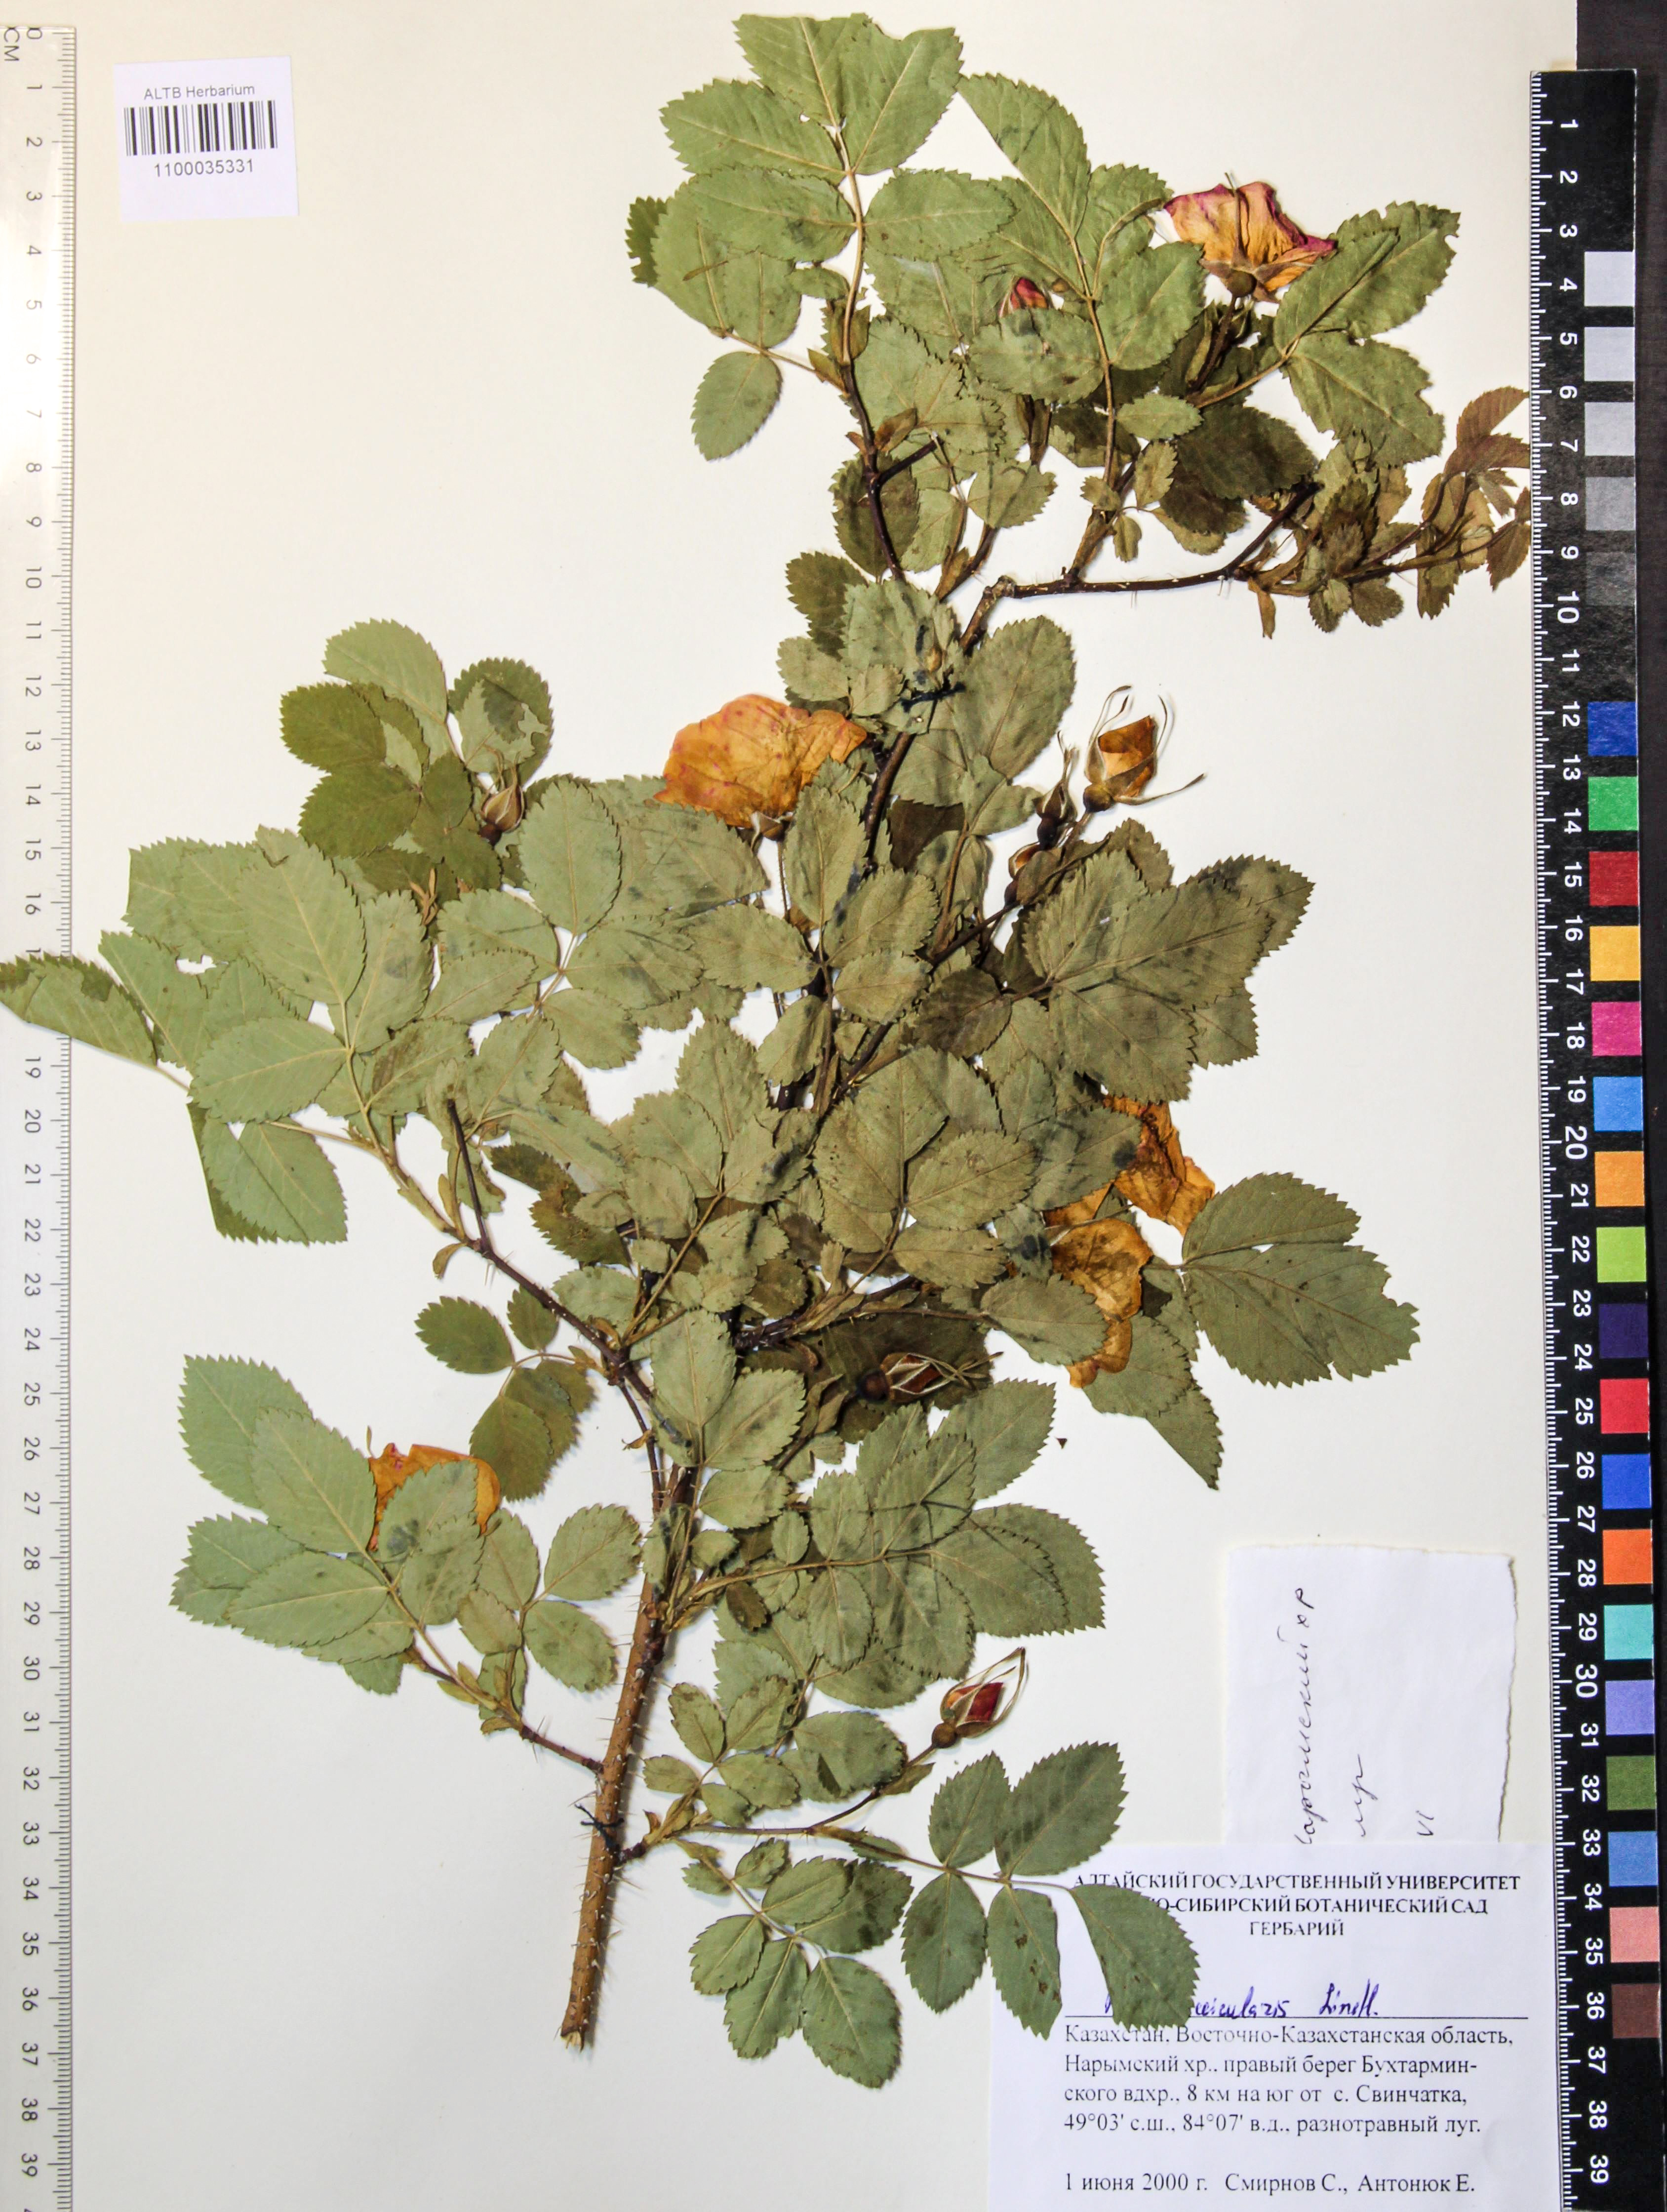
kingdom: Plantae
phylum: Tracheophyta
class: Magnoliopsida
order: Rosales
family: Rosaceae
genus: Rosa
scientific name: Rosa acicularis
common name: Prickly rose
